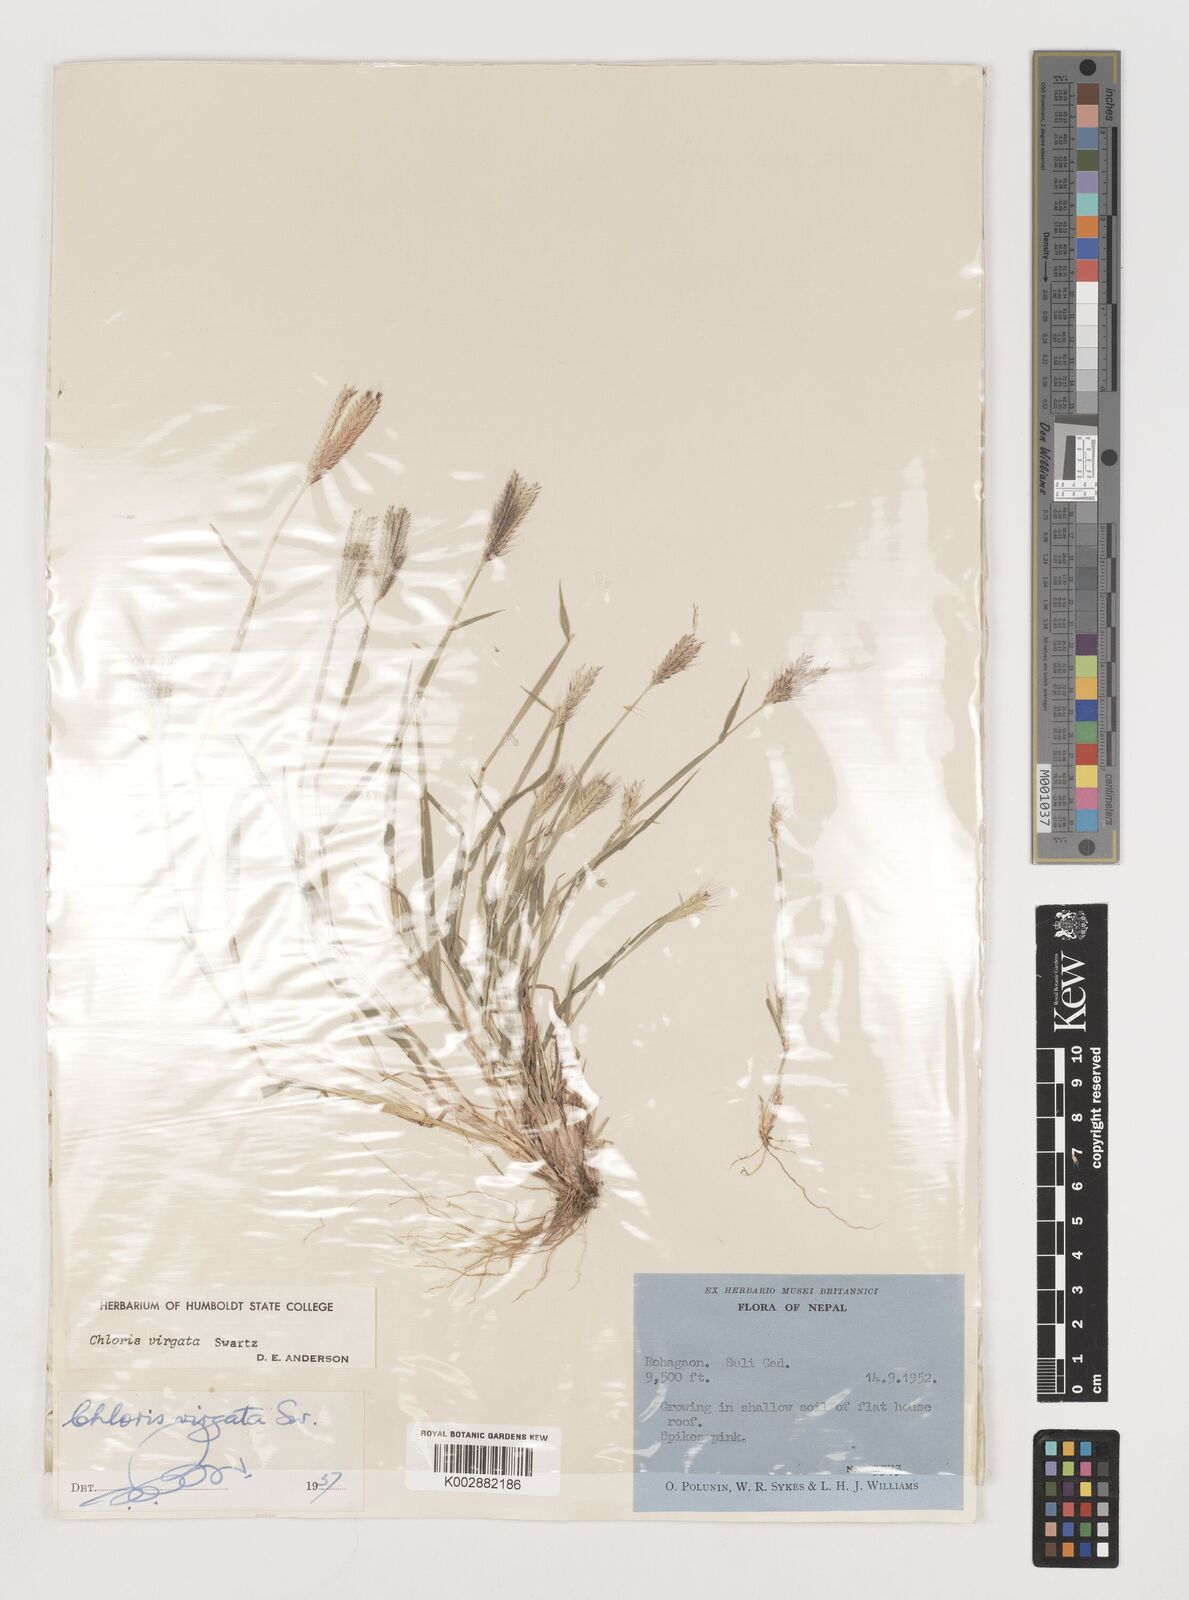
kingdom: Plantae
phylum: Tracheophyta
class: Liliopsida
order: Poales
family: Poaceae
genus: Chloris
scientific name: Chloris virgata
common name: Feathery rhodes-grass
